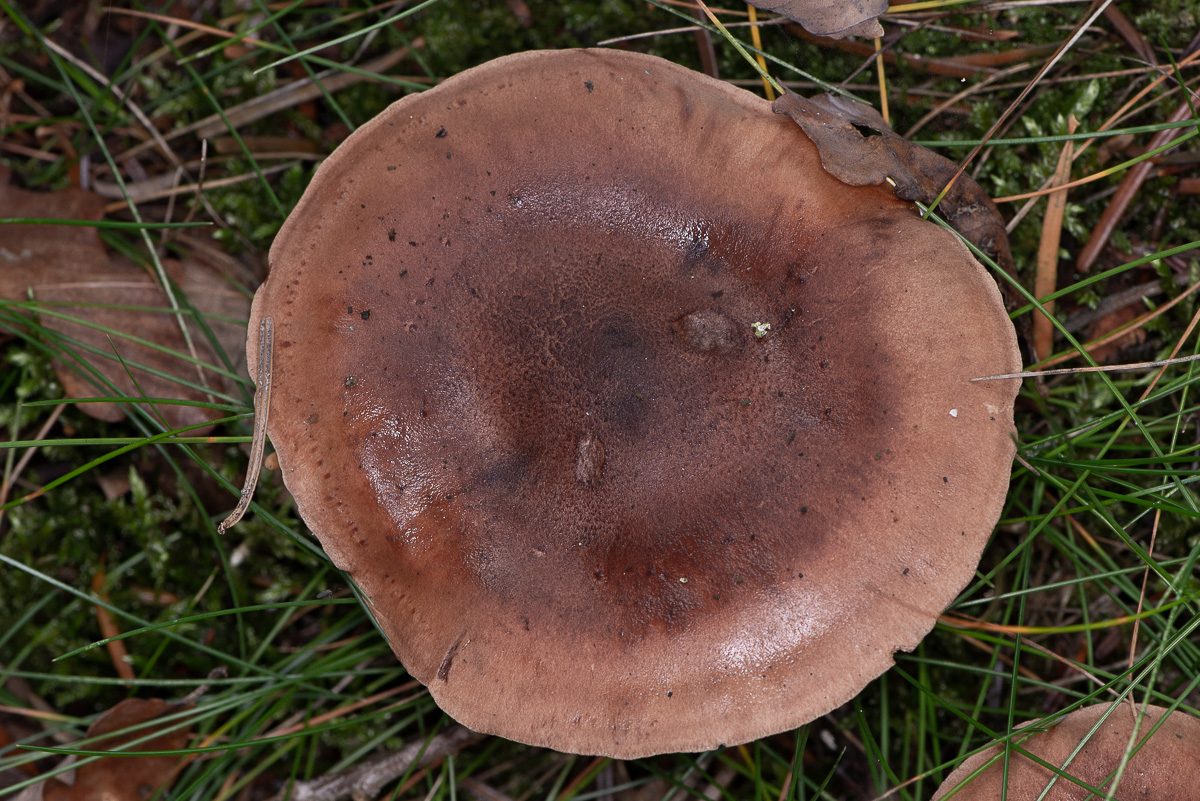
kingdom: Fungi
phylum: Basidiomycota
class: Agaricomycetes
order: Agaricales
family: Tricholomataceae
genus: Tricholoma
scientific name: Tricholoma fulvum
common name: birke-ridderhat
